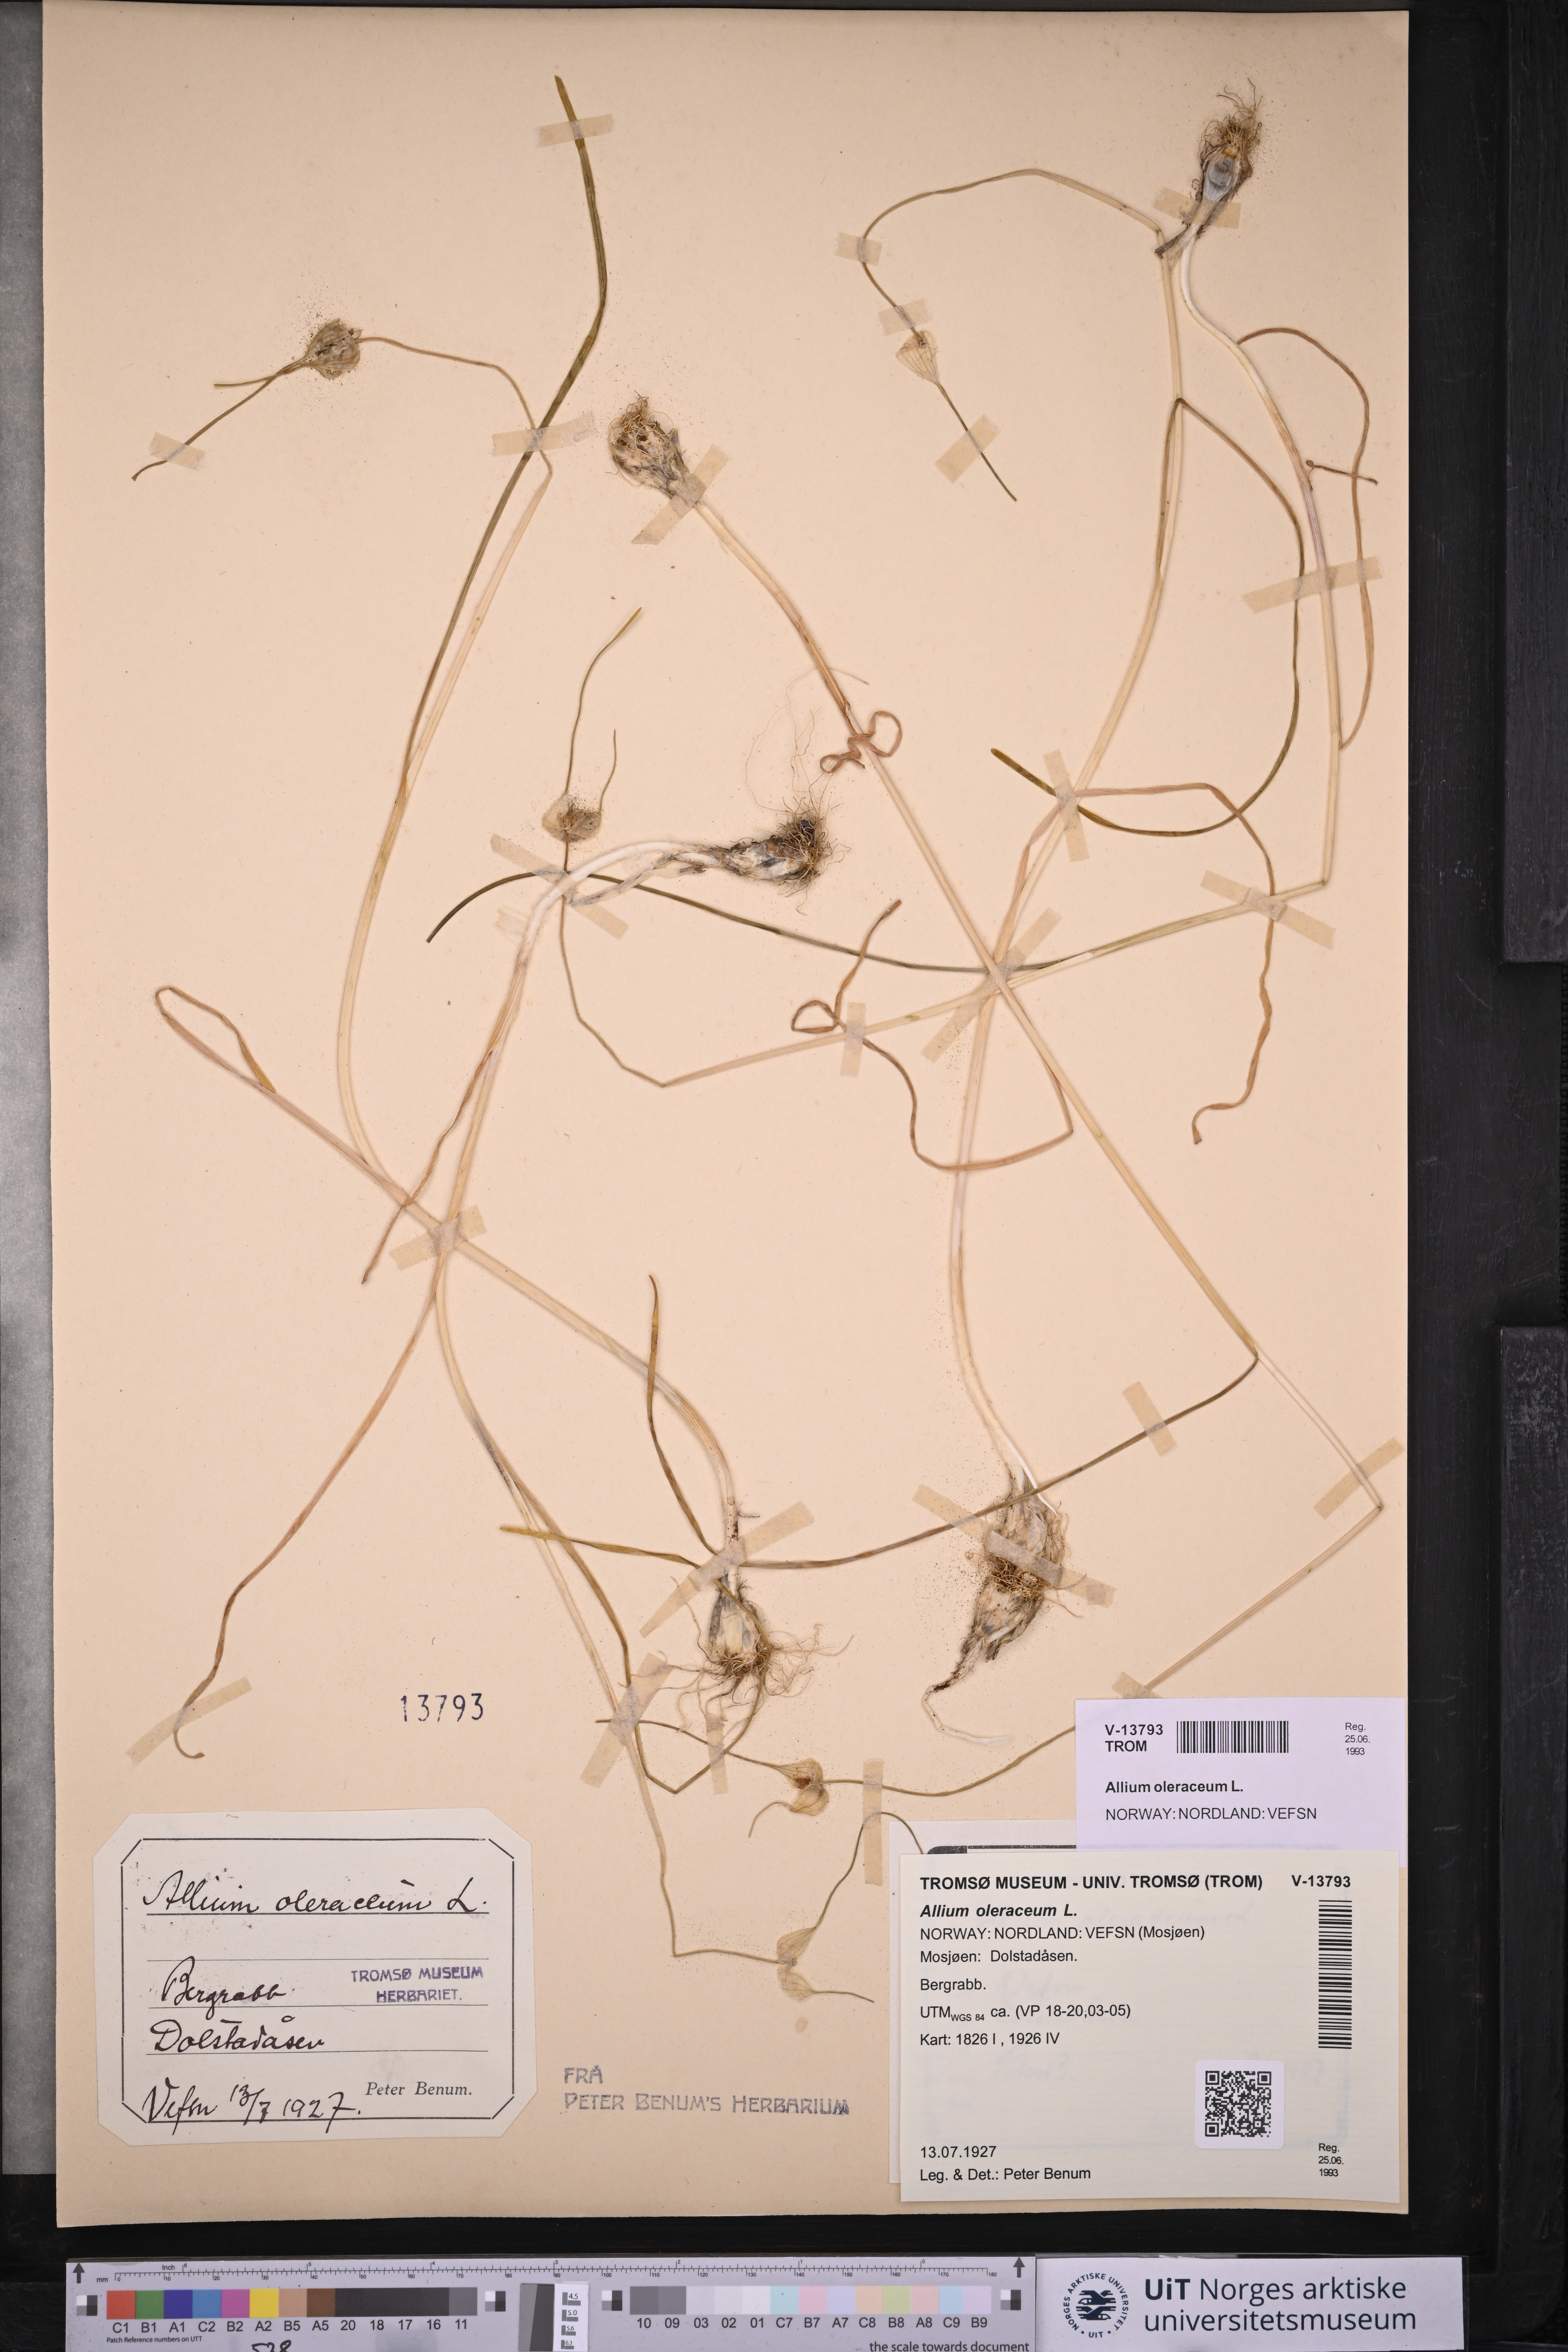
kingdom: Plantae
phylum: Tracheophyta
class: Liliopsida
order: Asparagales
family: Amaryllidaceae
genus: Allium
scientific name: Allium oleraceum
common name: Field garlic
